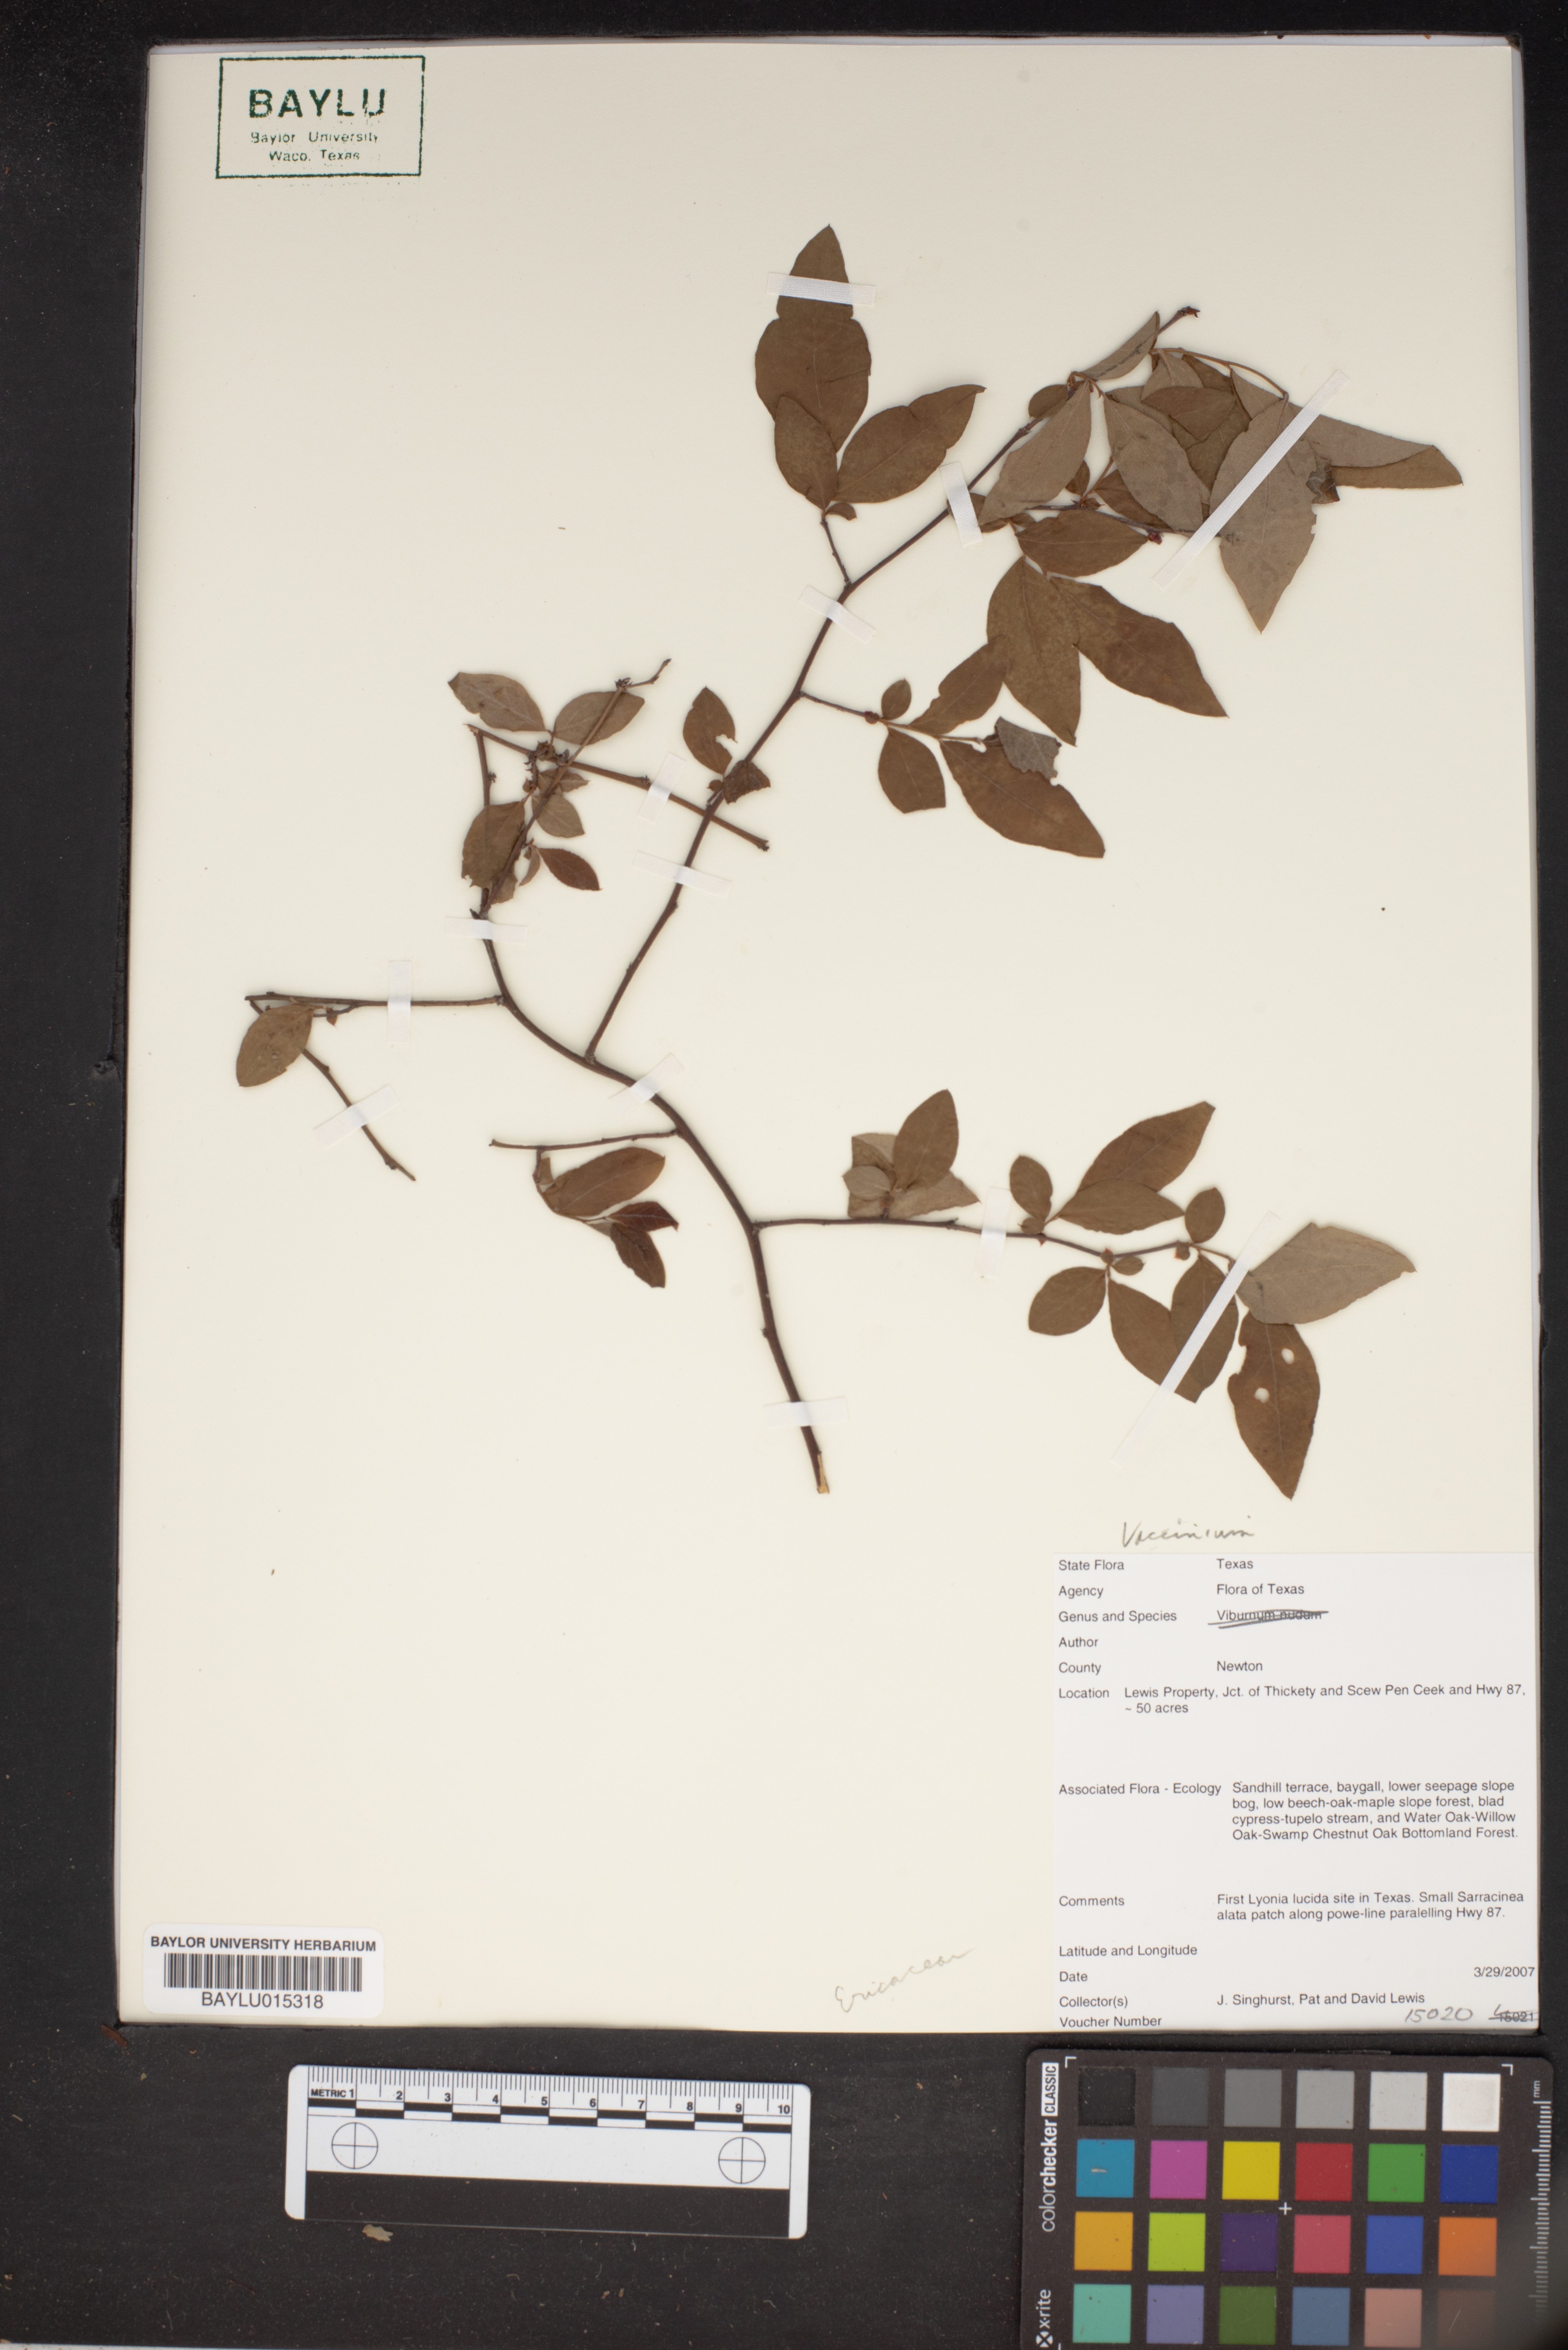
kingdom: Plantae
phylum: Tracheophyta
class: Magnoliopsida
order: Ericales
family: Ericaceae
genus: Vaccinium
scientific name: Vaccinium
